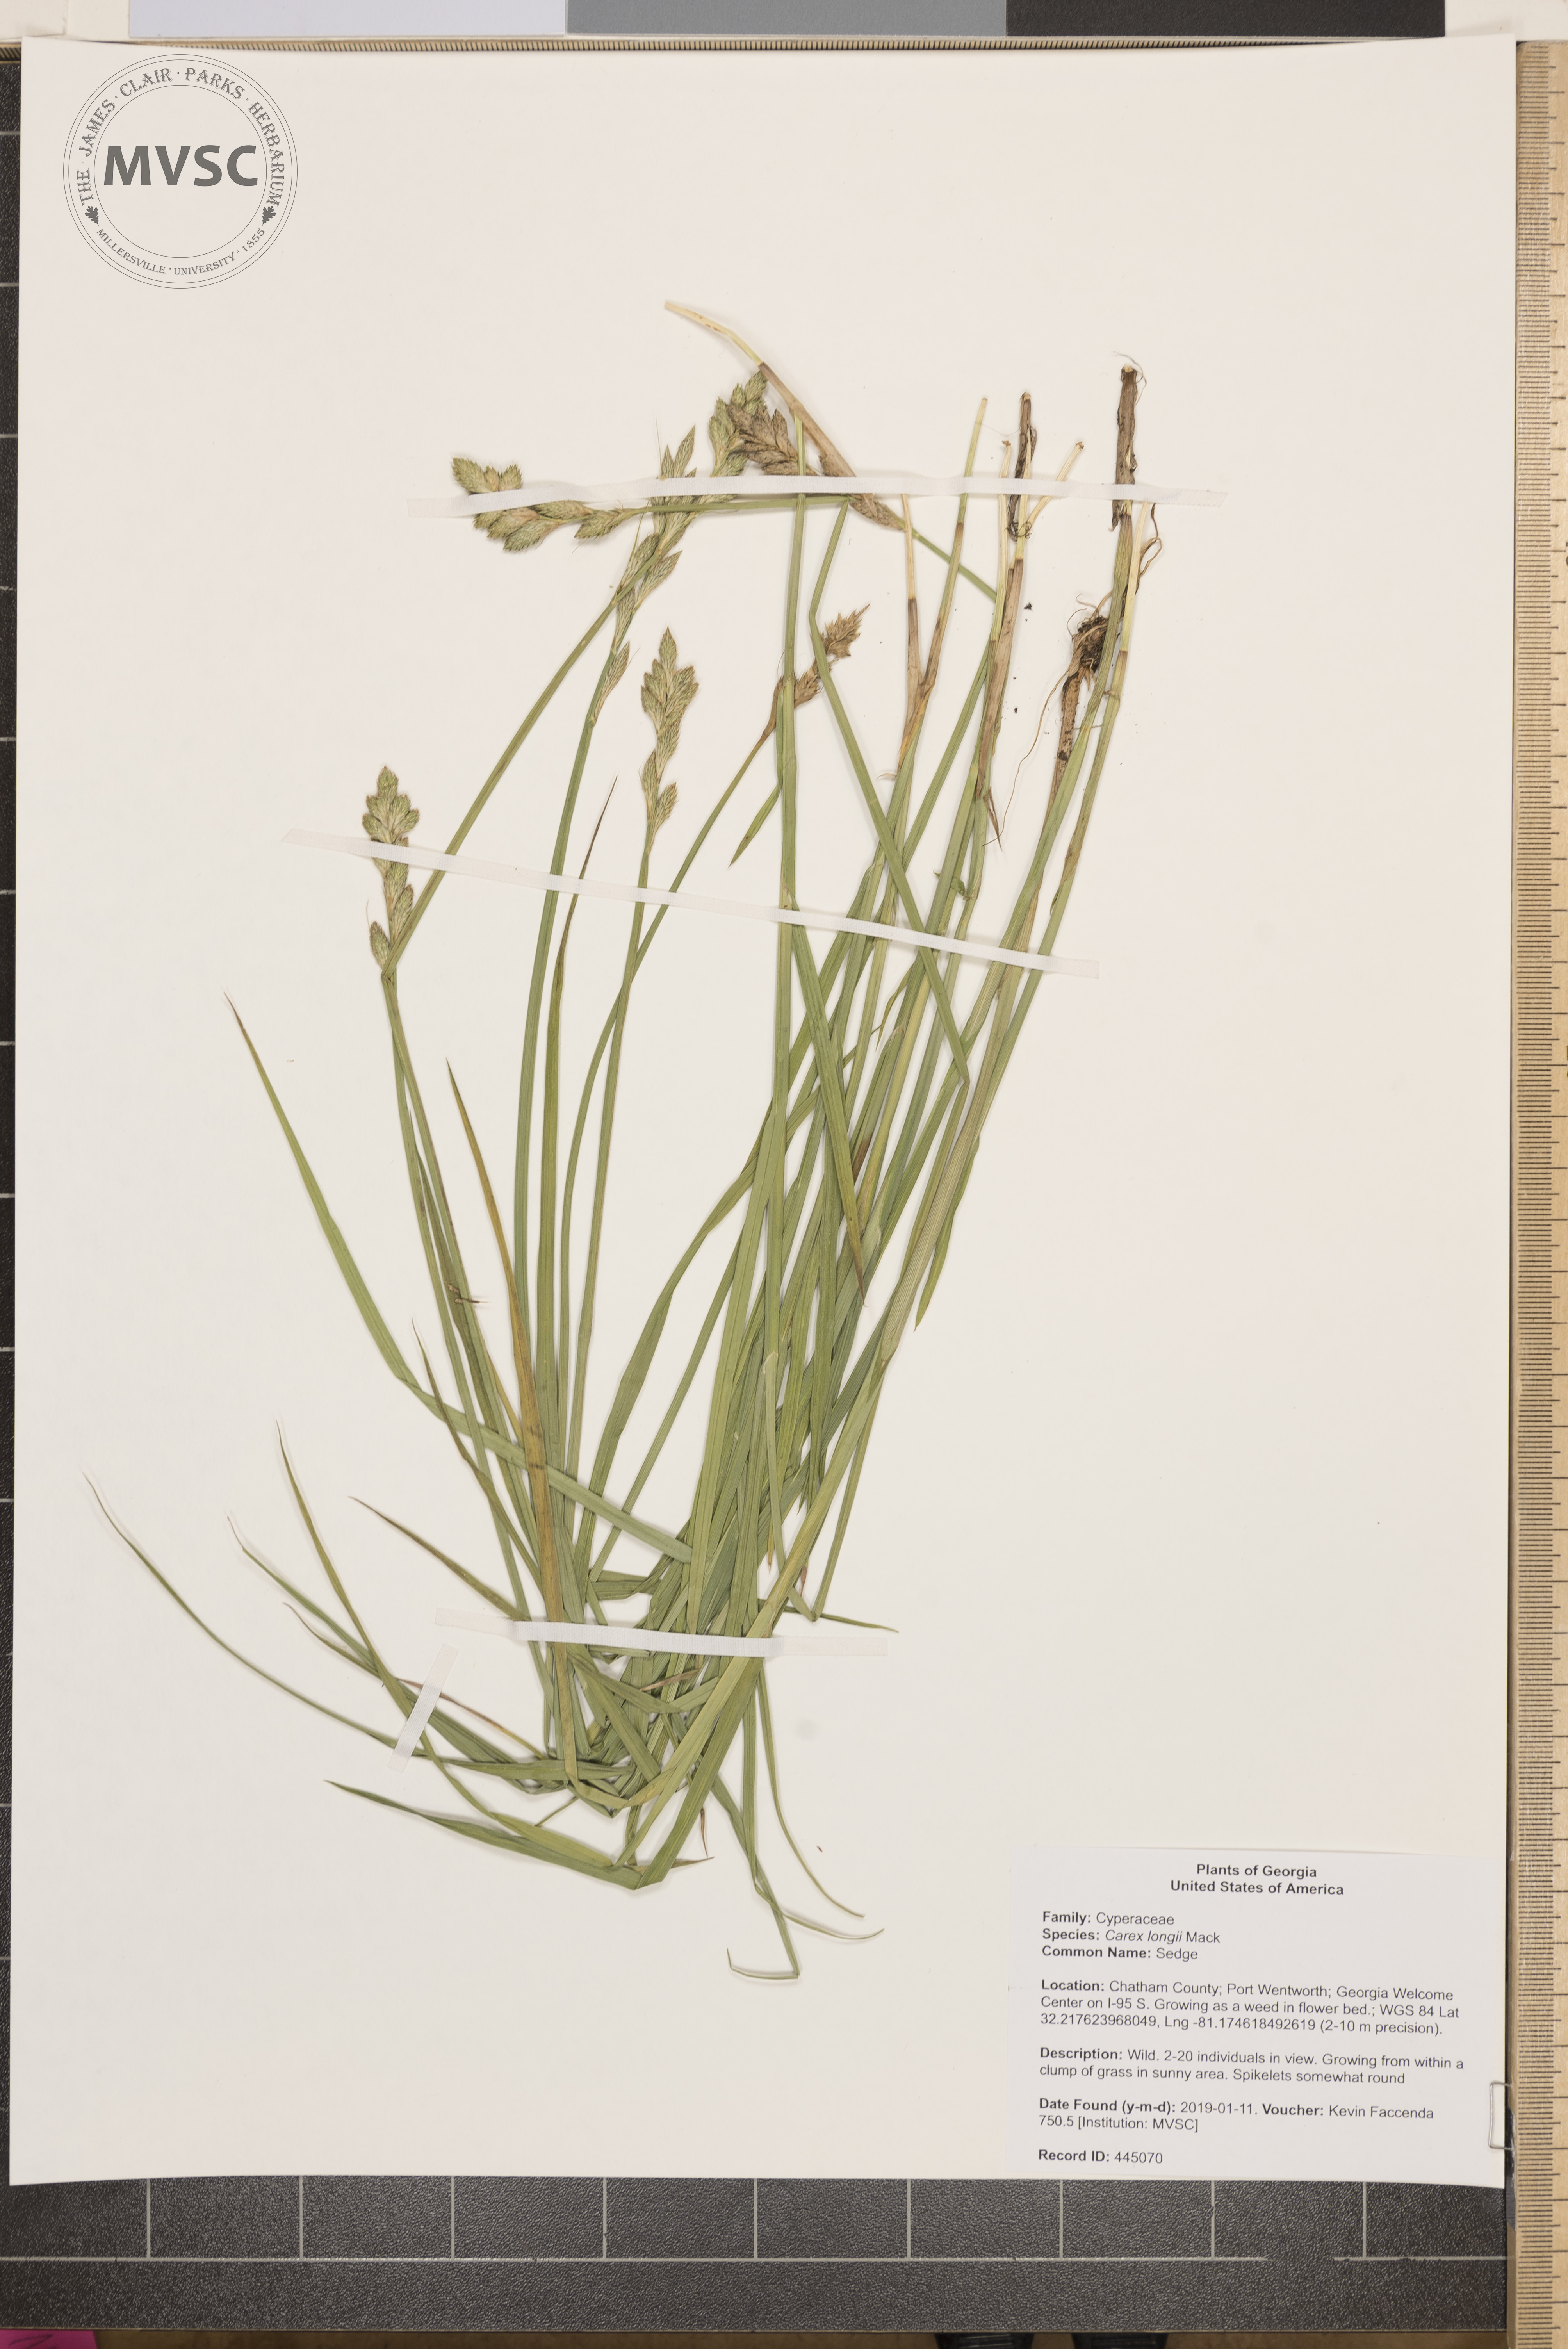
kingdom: Plantae
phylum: Tracheophyta
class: Liliopsida
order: Poales
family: Cyperaceae
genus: Carex
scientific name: Carex longii
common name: Sedge
